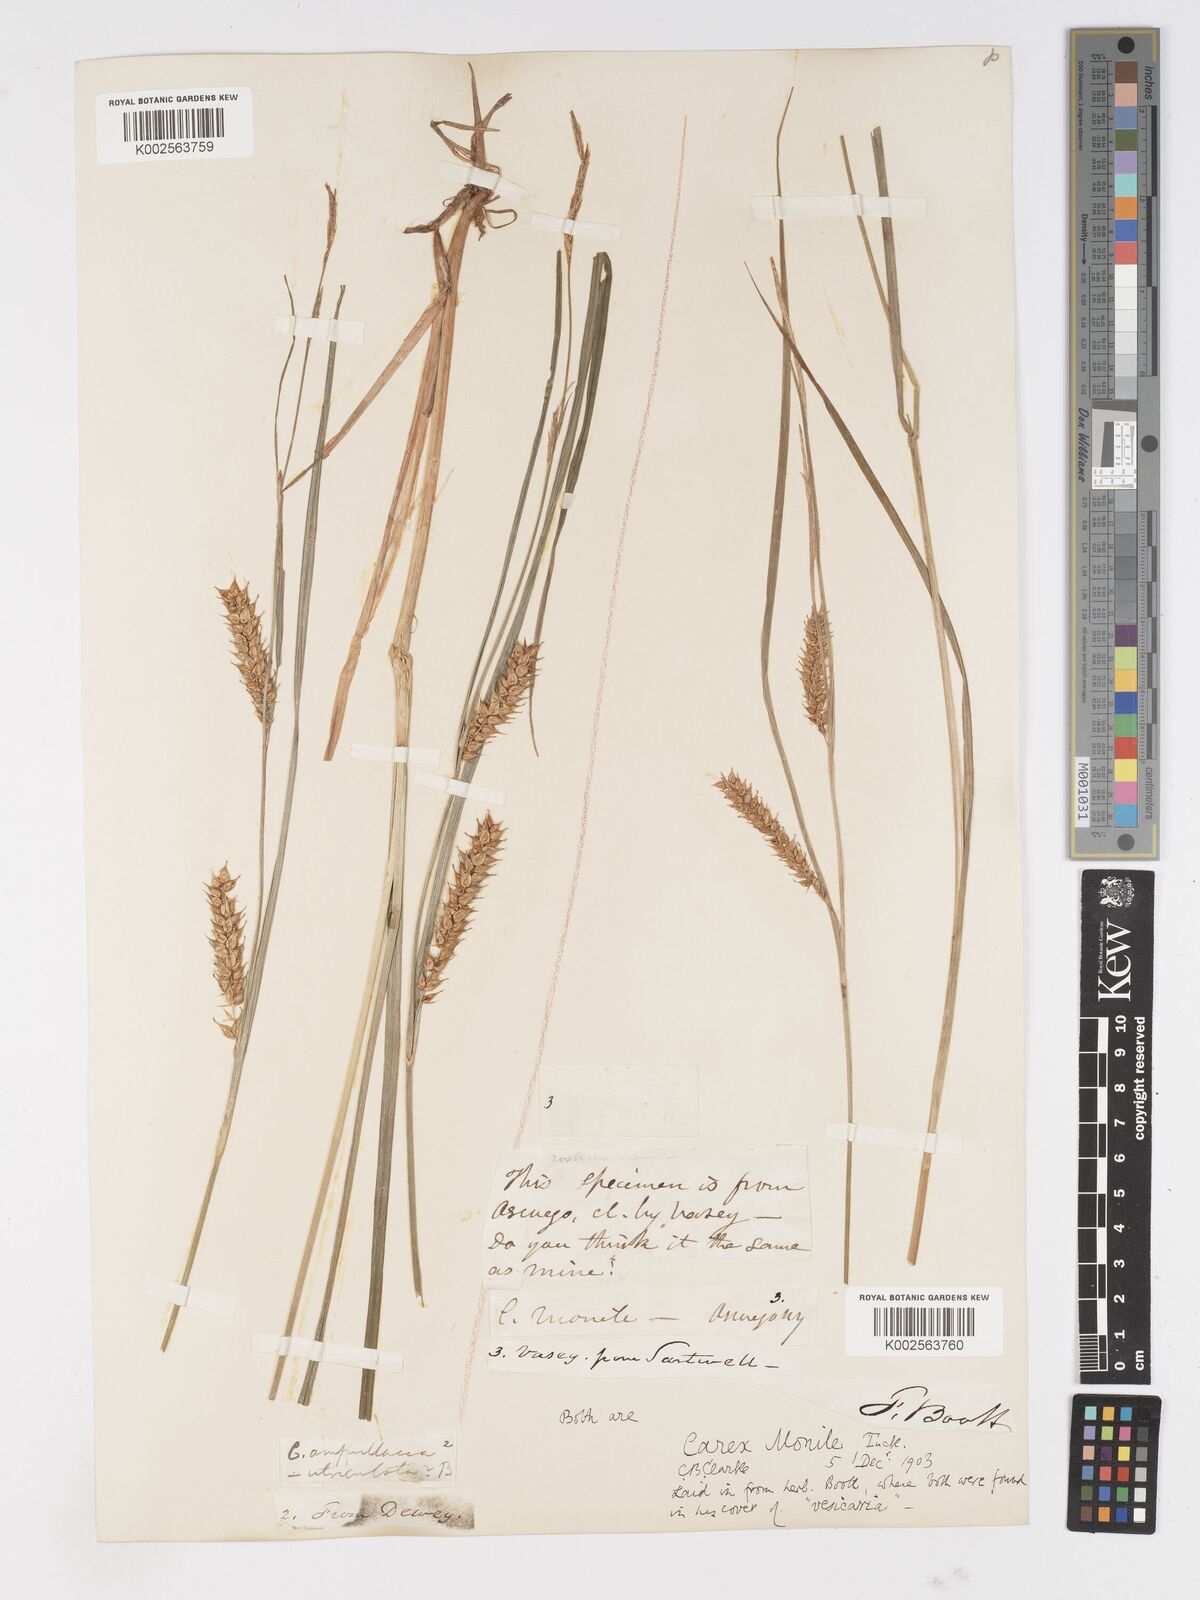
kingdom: Plantae
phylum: Tracheophyta
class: Liliopsida
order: Poales
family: Cyperaceae
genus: Carex
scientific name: Carex vesicaria
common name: Bladder-sedge
